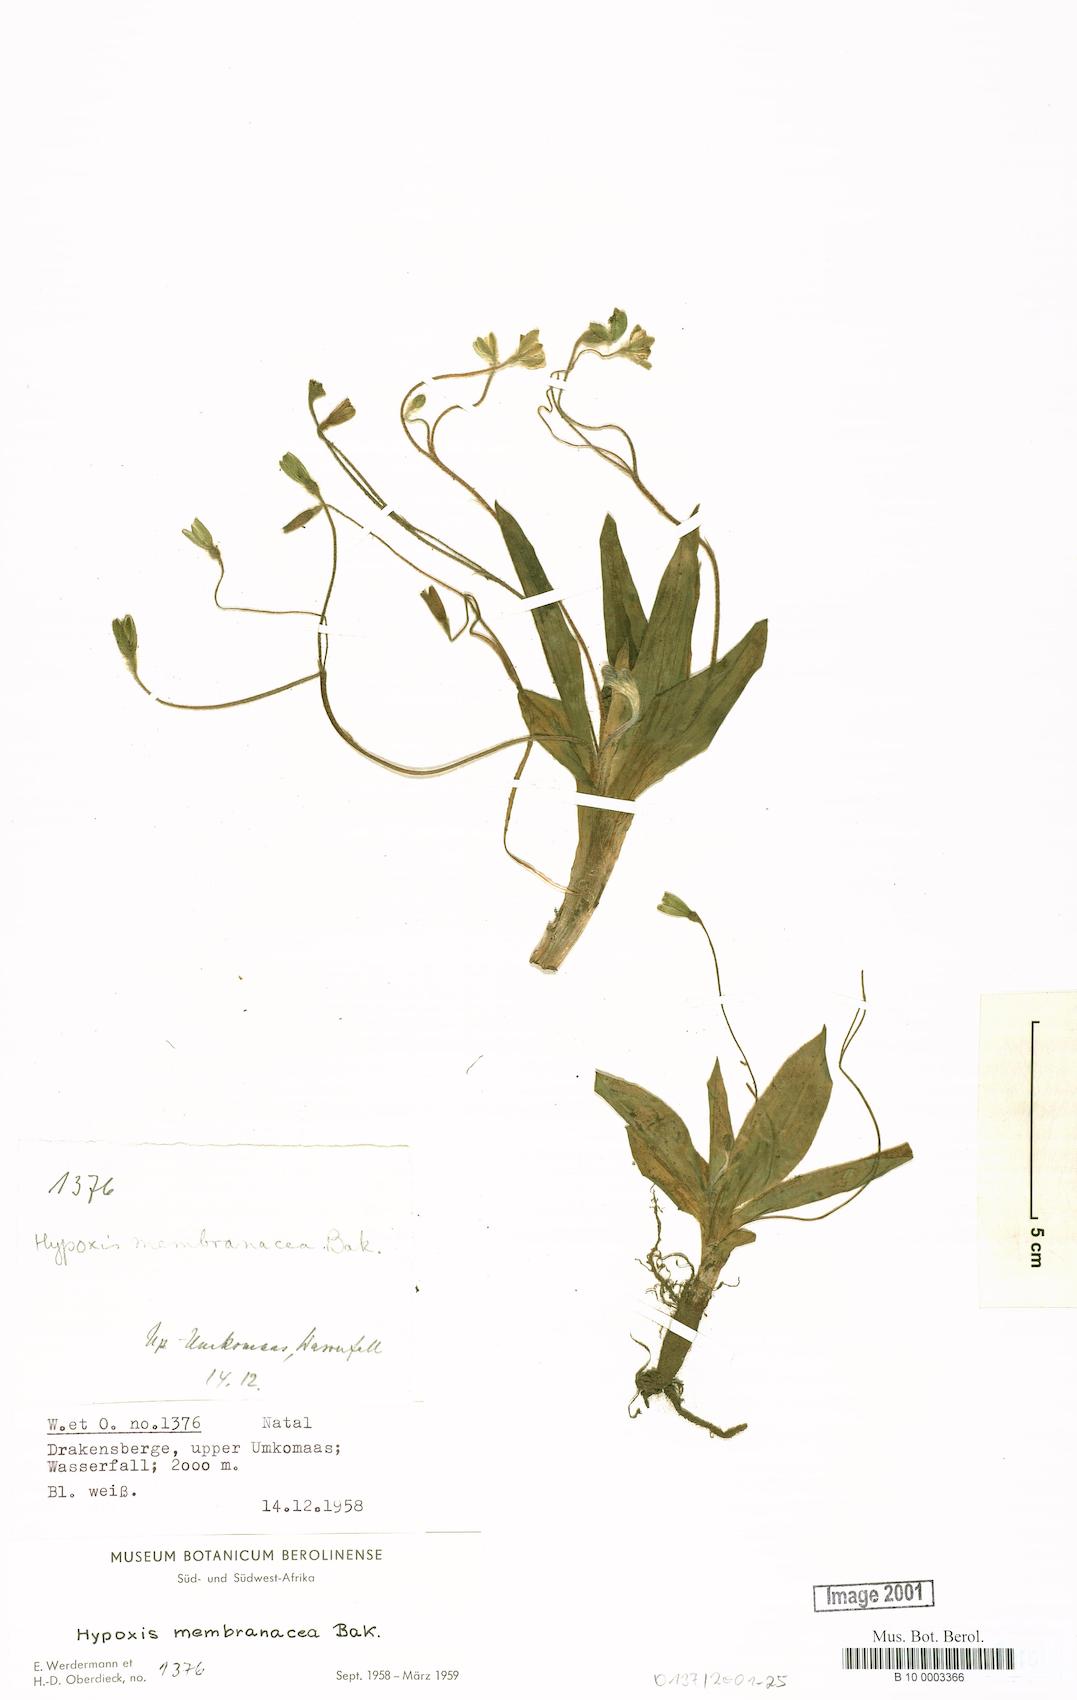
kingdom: Plantae
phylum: Tracheophyta
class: Liliopsida
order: Asparagales
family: Hypoxidaceae
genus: Hypoxis
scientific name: Hypoxis membranacea
